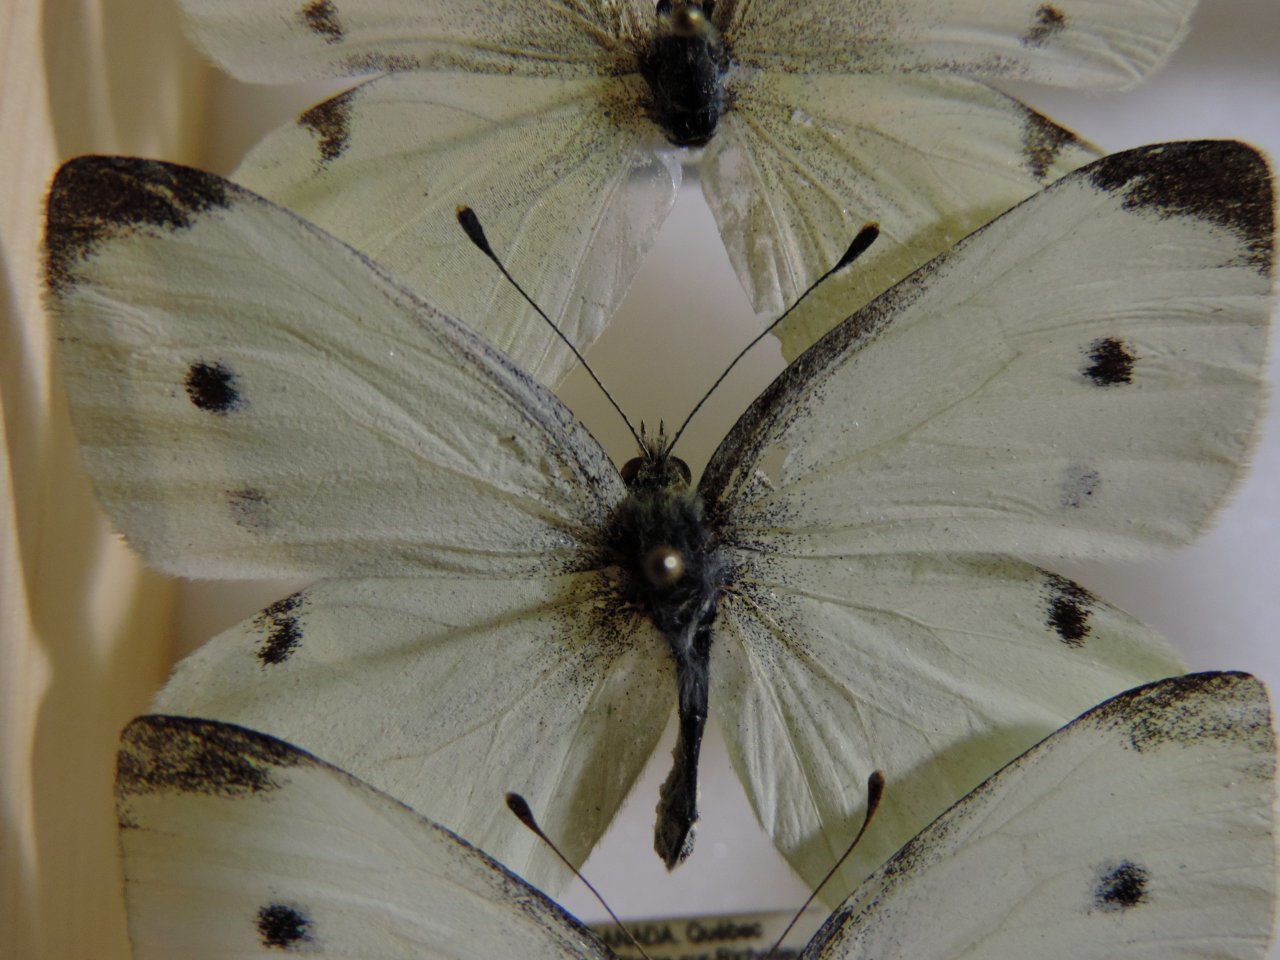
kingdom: Animalia
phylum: Arthropoda
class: Insecta
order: Lepidoptera
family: Pieridae
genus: Pieris
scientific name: Pieris rapae
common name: Cabbage White
